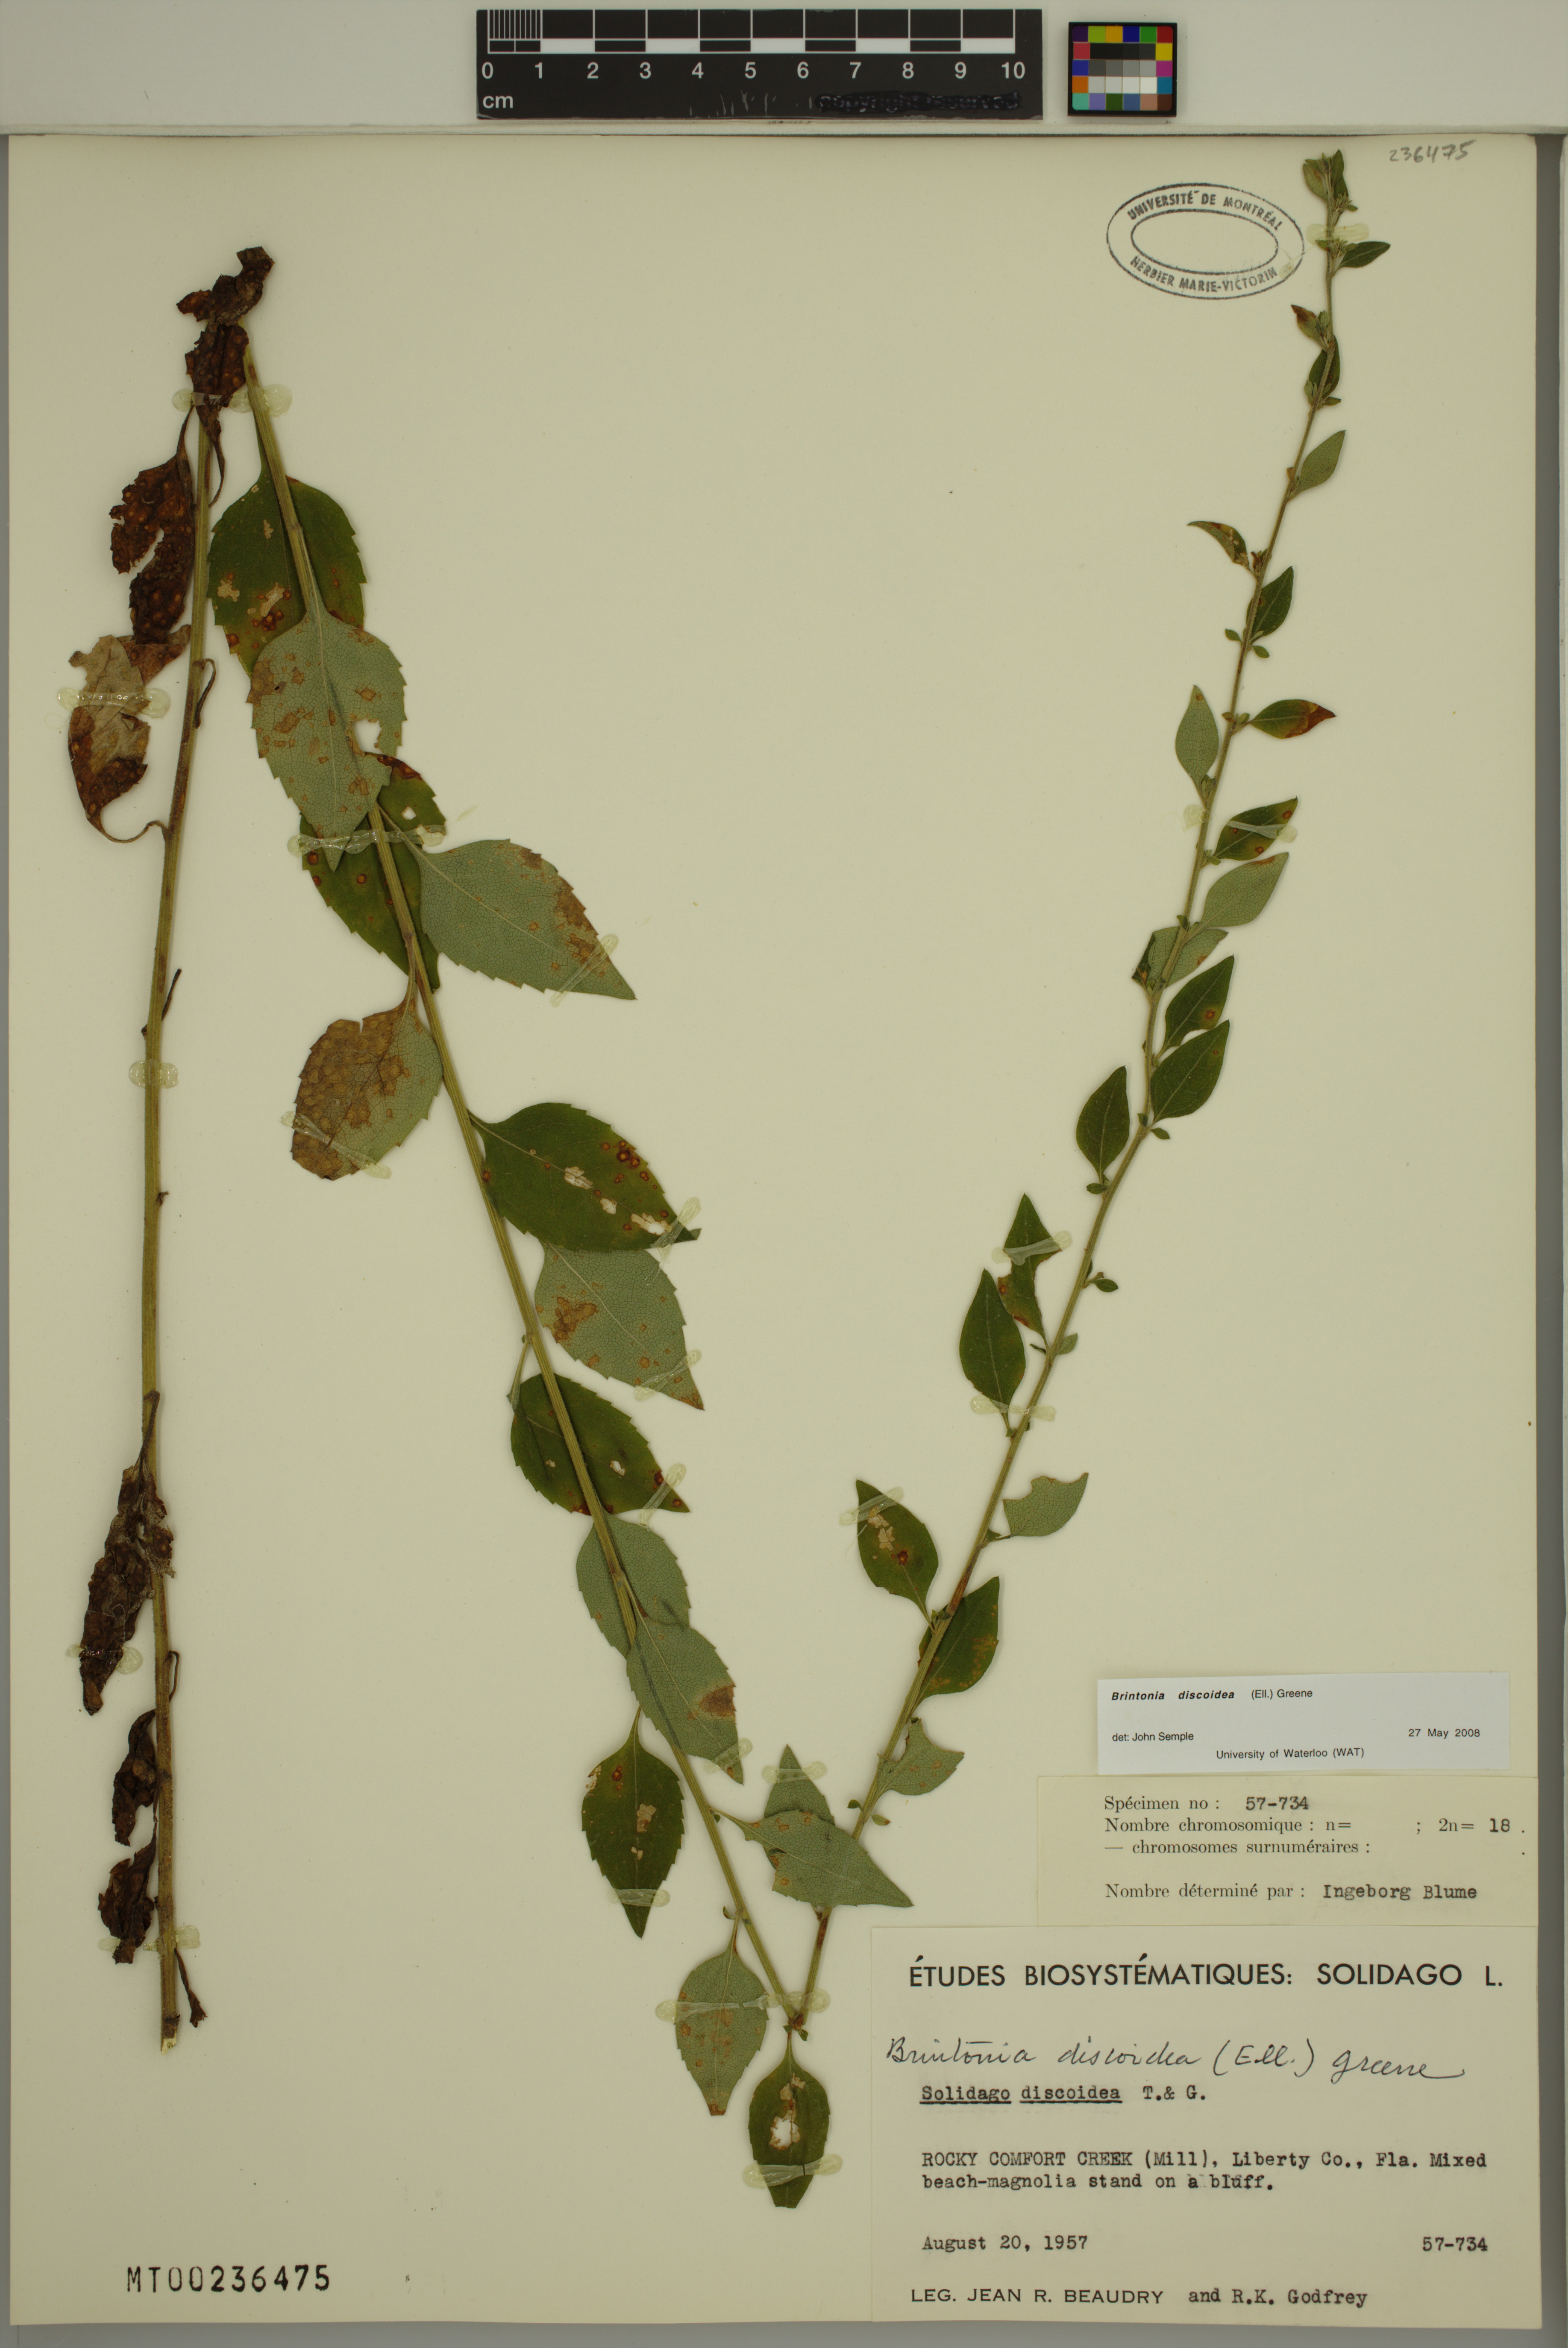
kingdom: Plantae
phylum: Tracheophyta
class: Magnoliopsida
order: Asterales
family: Asteraceae
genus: Solidago
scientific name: Solidago discoidea
